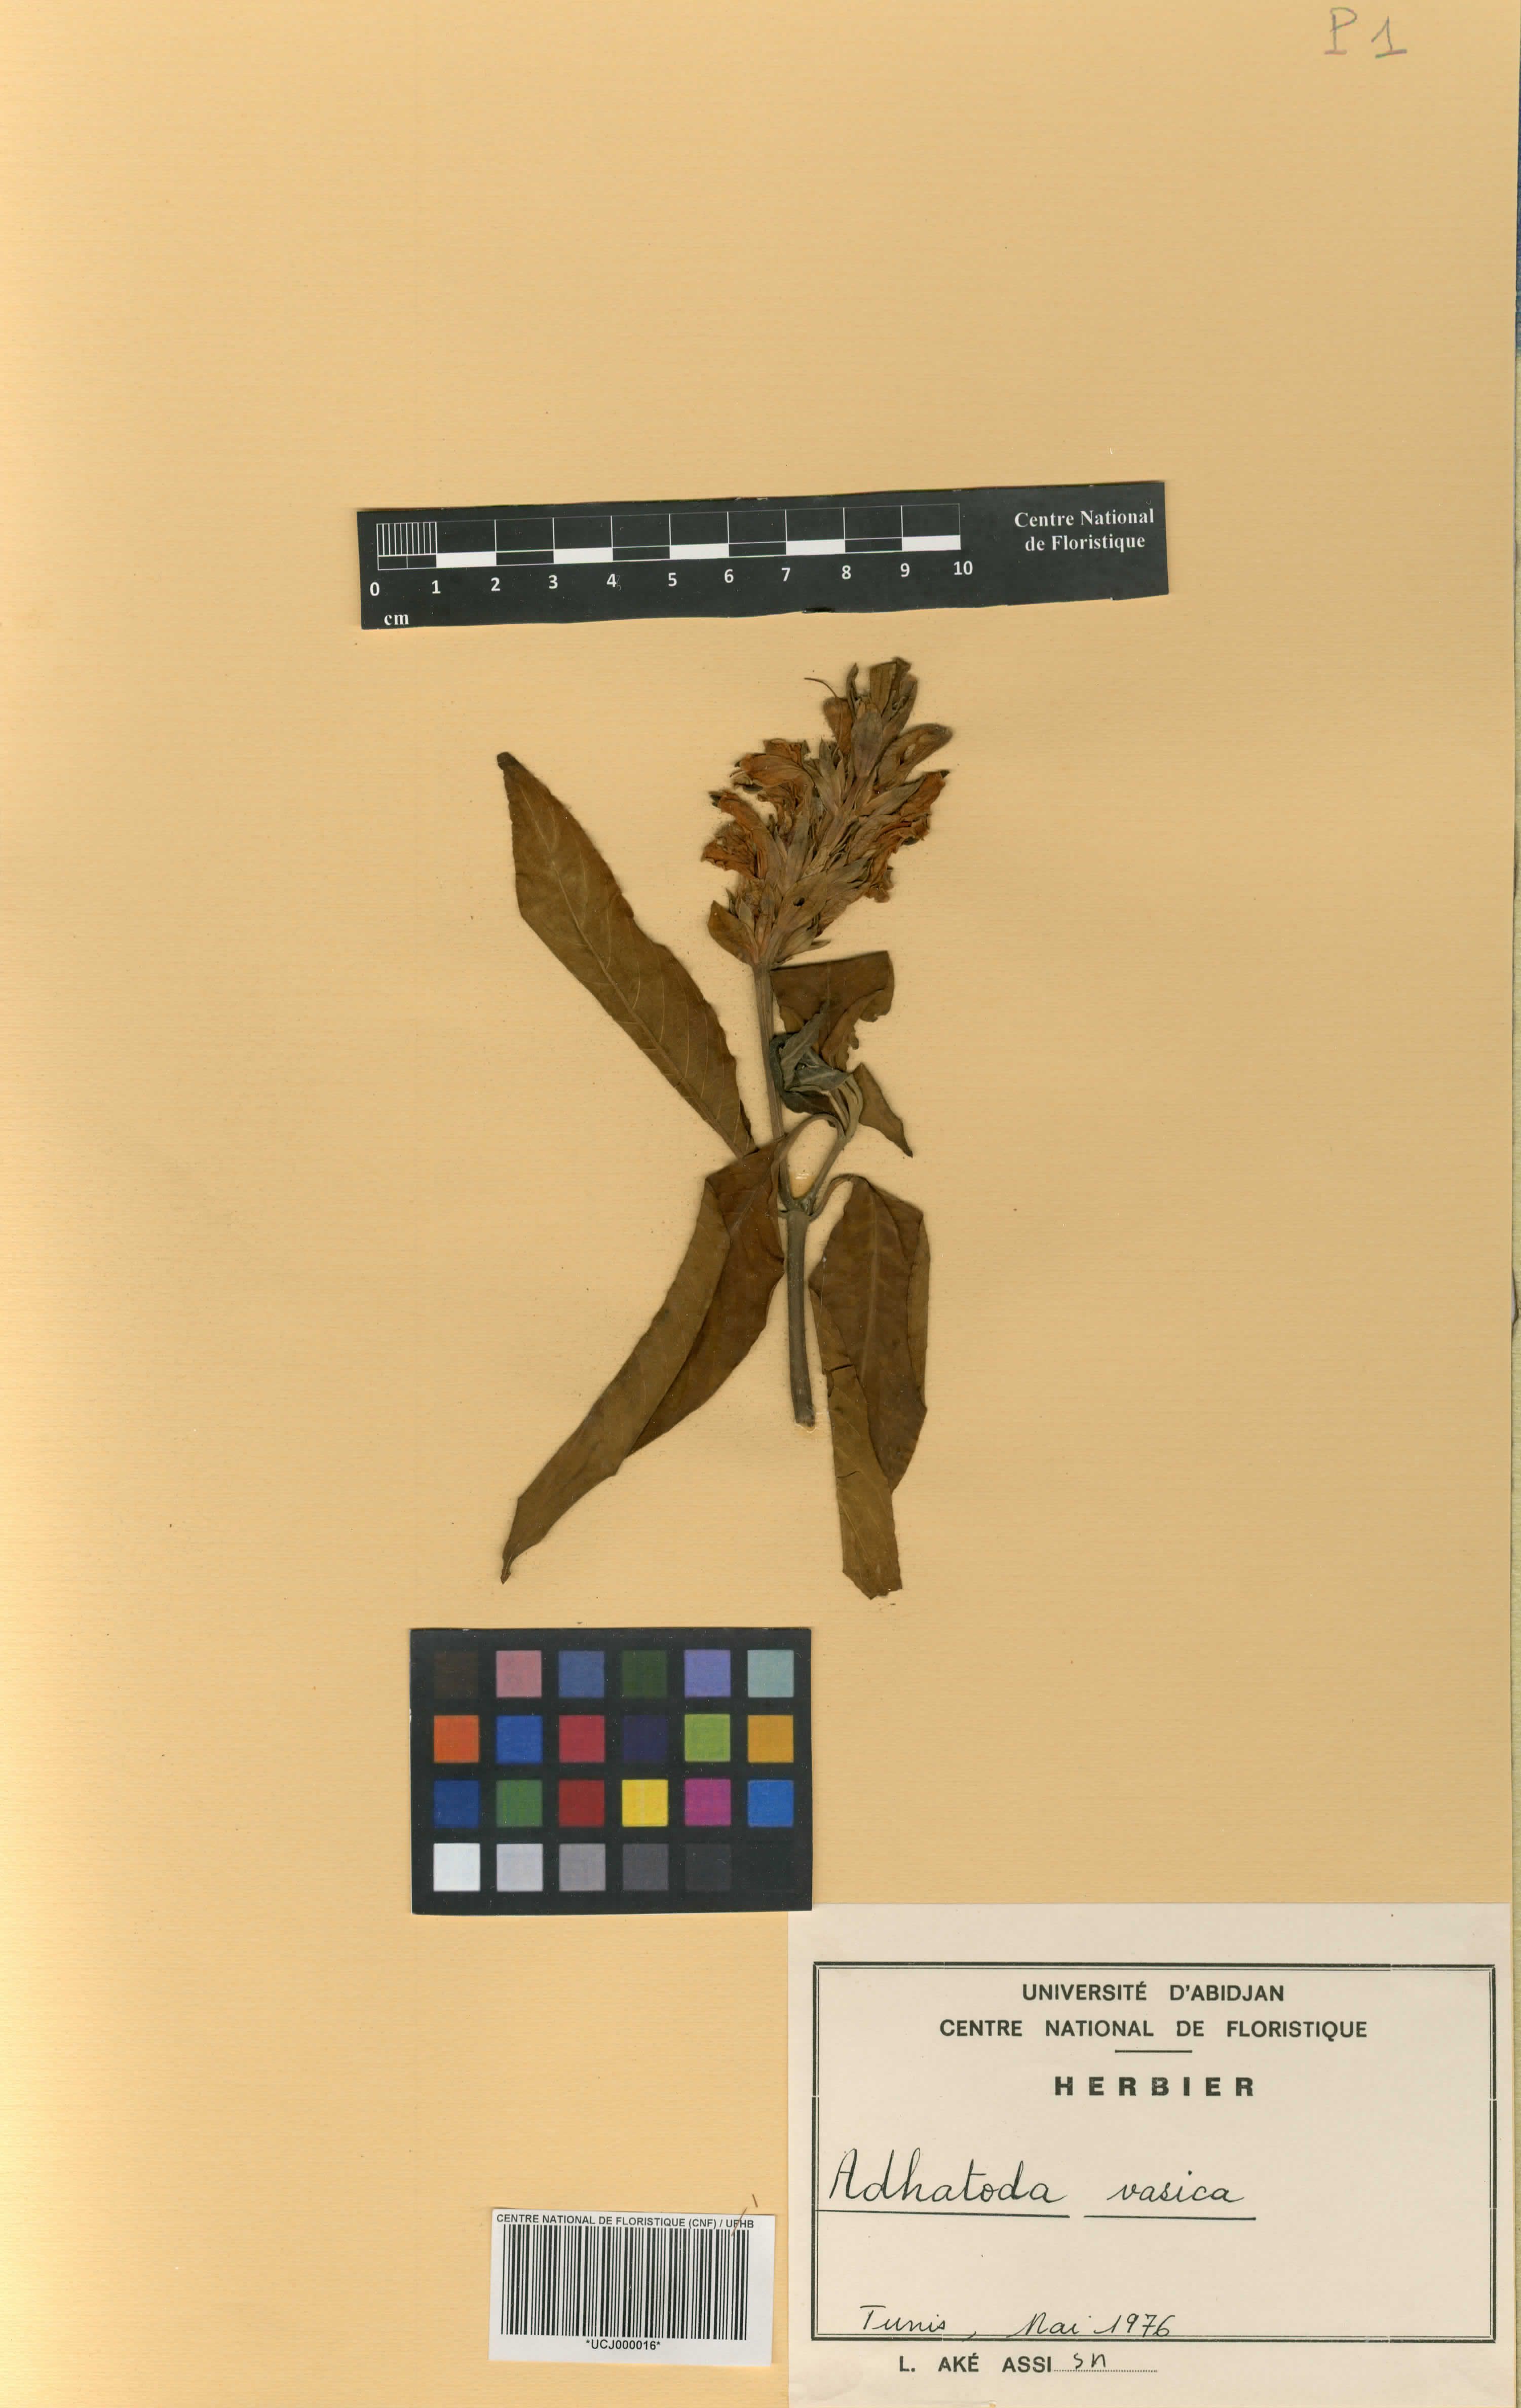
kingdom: Plantae
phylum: Tracheophyta
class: Magnoliopsida
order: Lamiales
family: Acanthaceae
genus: Justicia
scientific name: Justicia adhatoda
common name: Malabar nut
